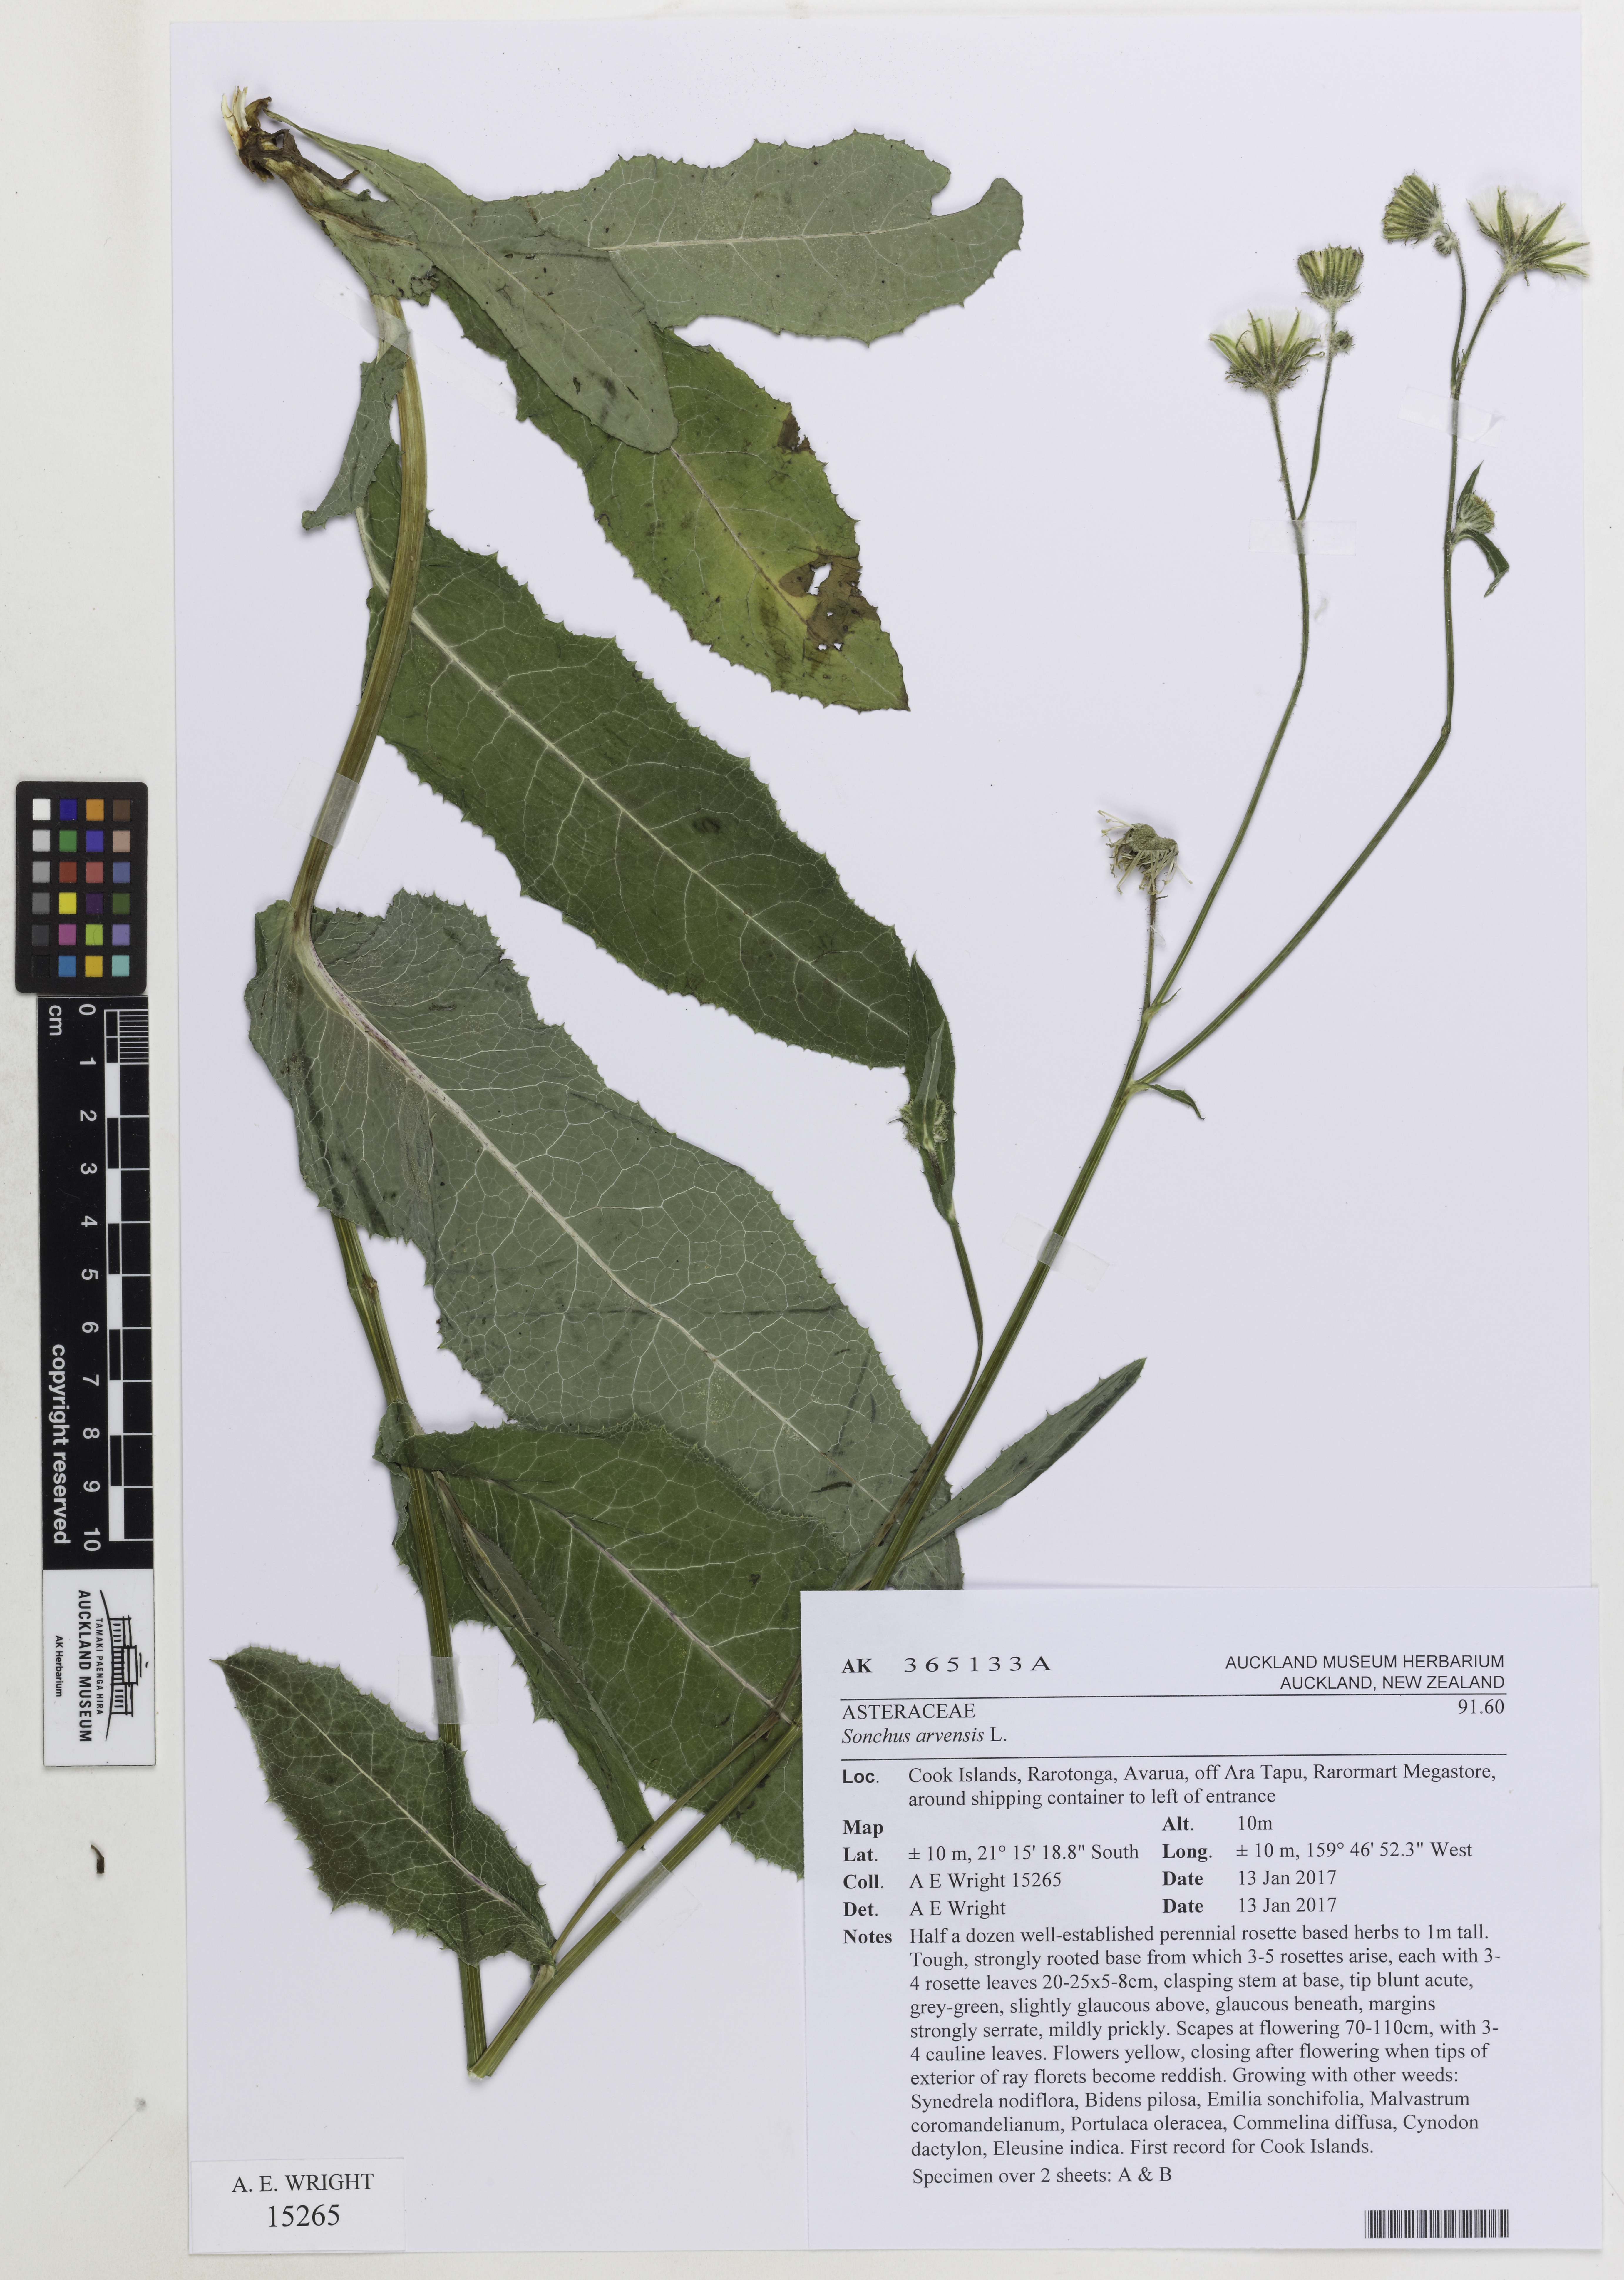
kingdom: Plantae
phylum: Tracheophyta
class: Magnoliopsida
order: Asterales
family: Asteraceae
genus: Sonchus
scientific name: Sonchus arvensis
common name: Perennial sow-thistle
